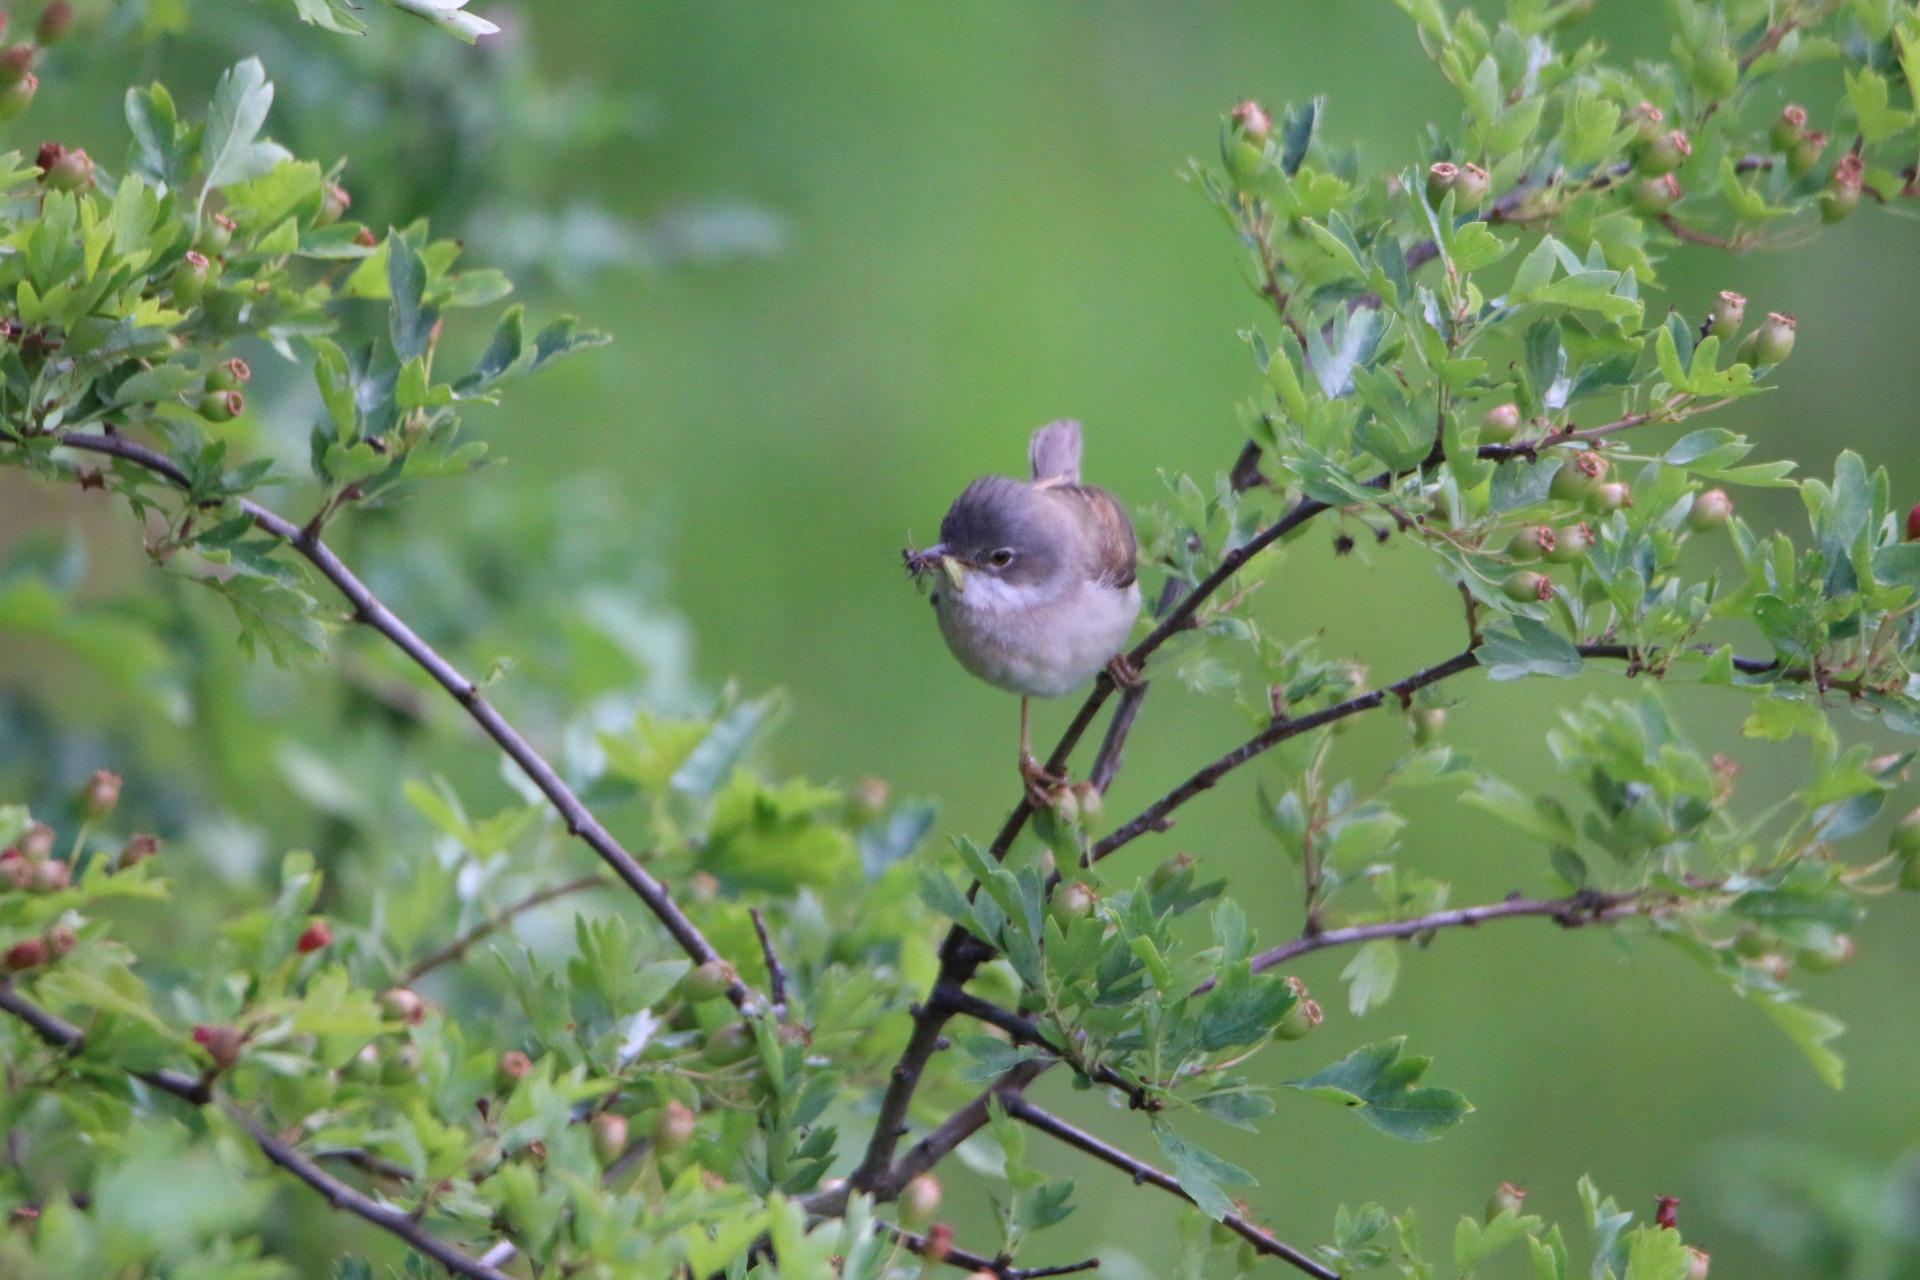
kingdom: Animalia
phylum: Chordata
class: Aves
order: Passeriformes
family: Sylviidae
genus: Sylvia
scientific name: Sylvia communis
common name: Tornsanger
